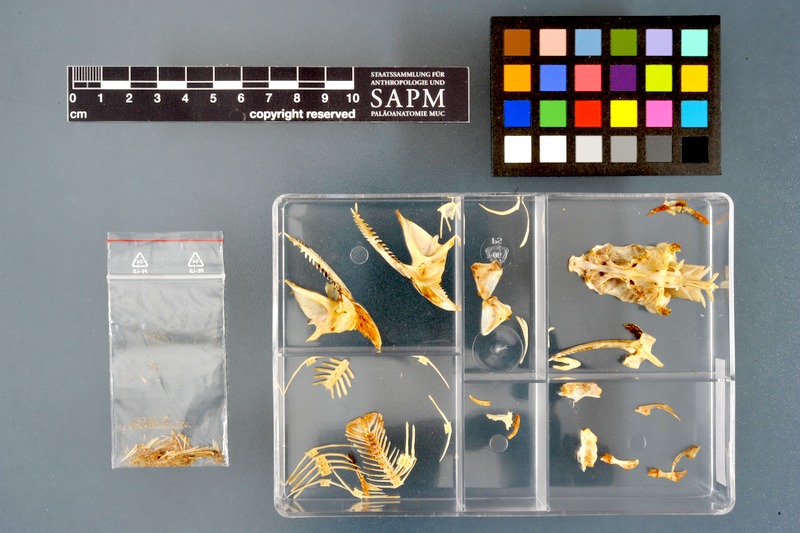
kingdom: Animalia
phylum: Chordata
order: Siluriformes
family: Mochokidae
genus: Synodontis
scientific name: Synodontis nigrita
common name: Catfish
